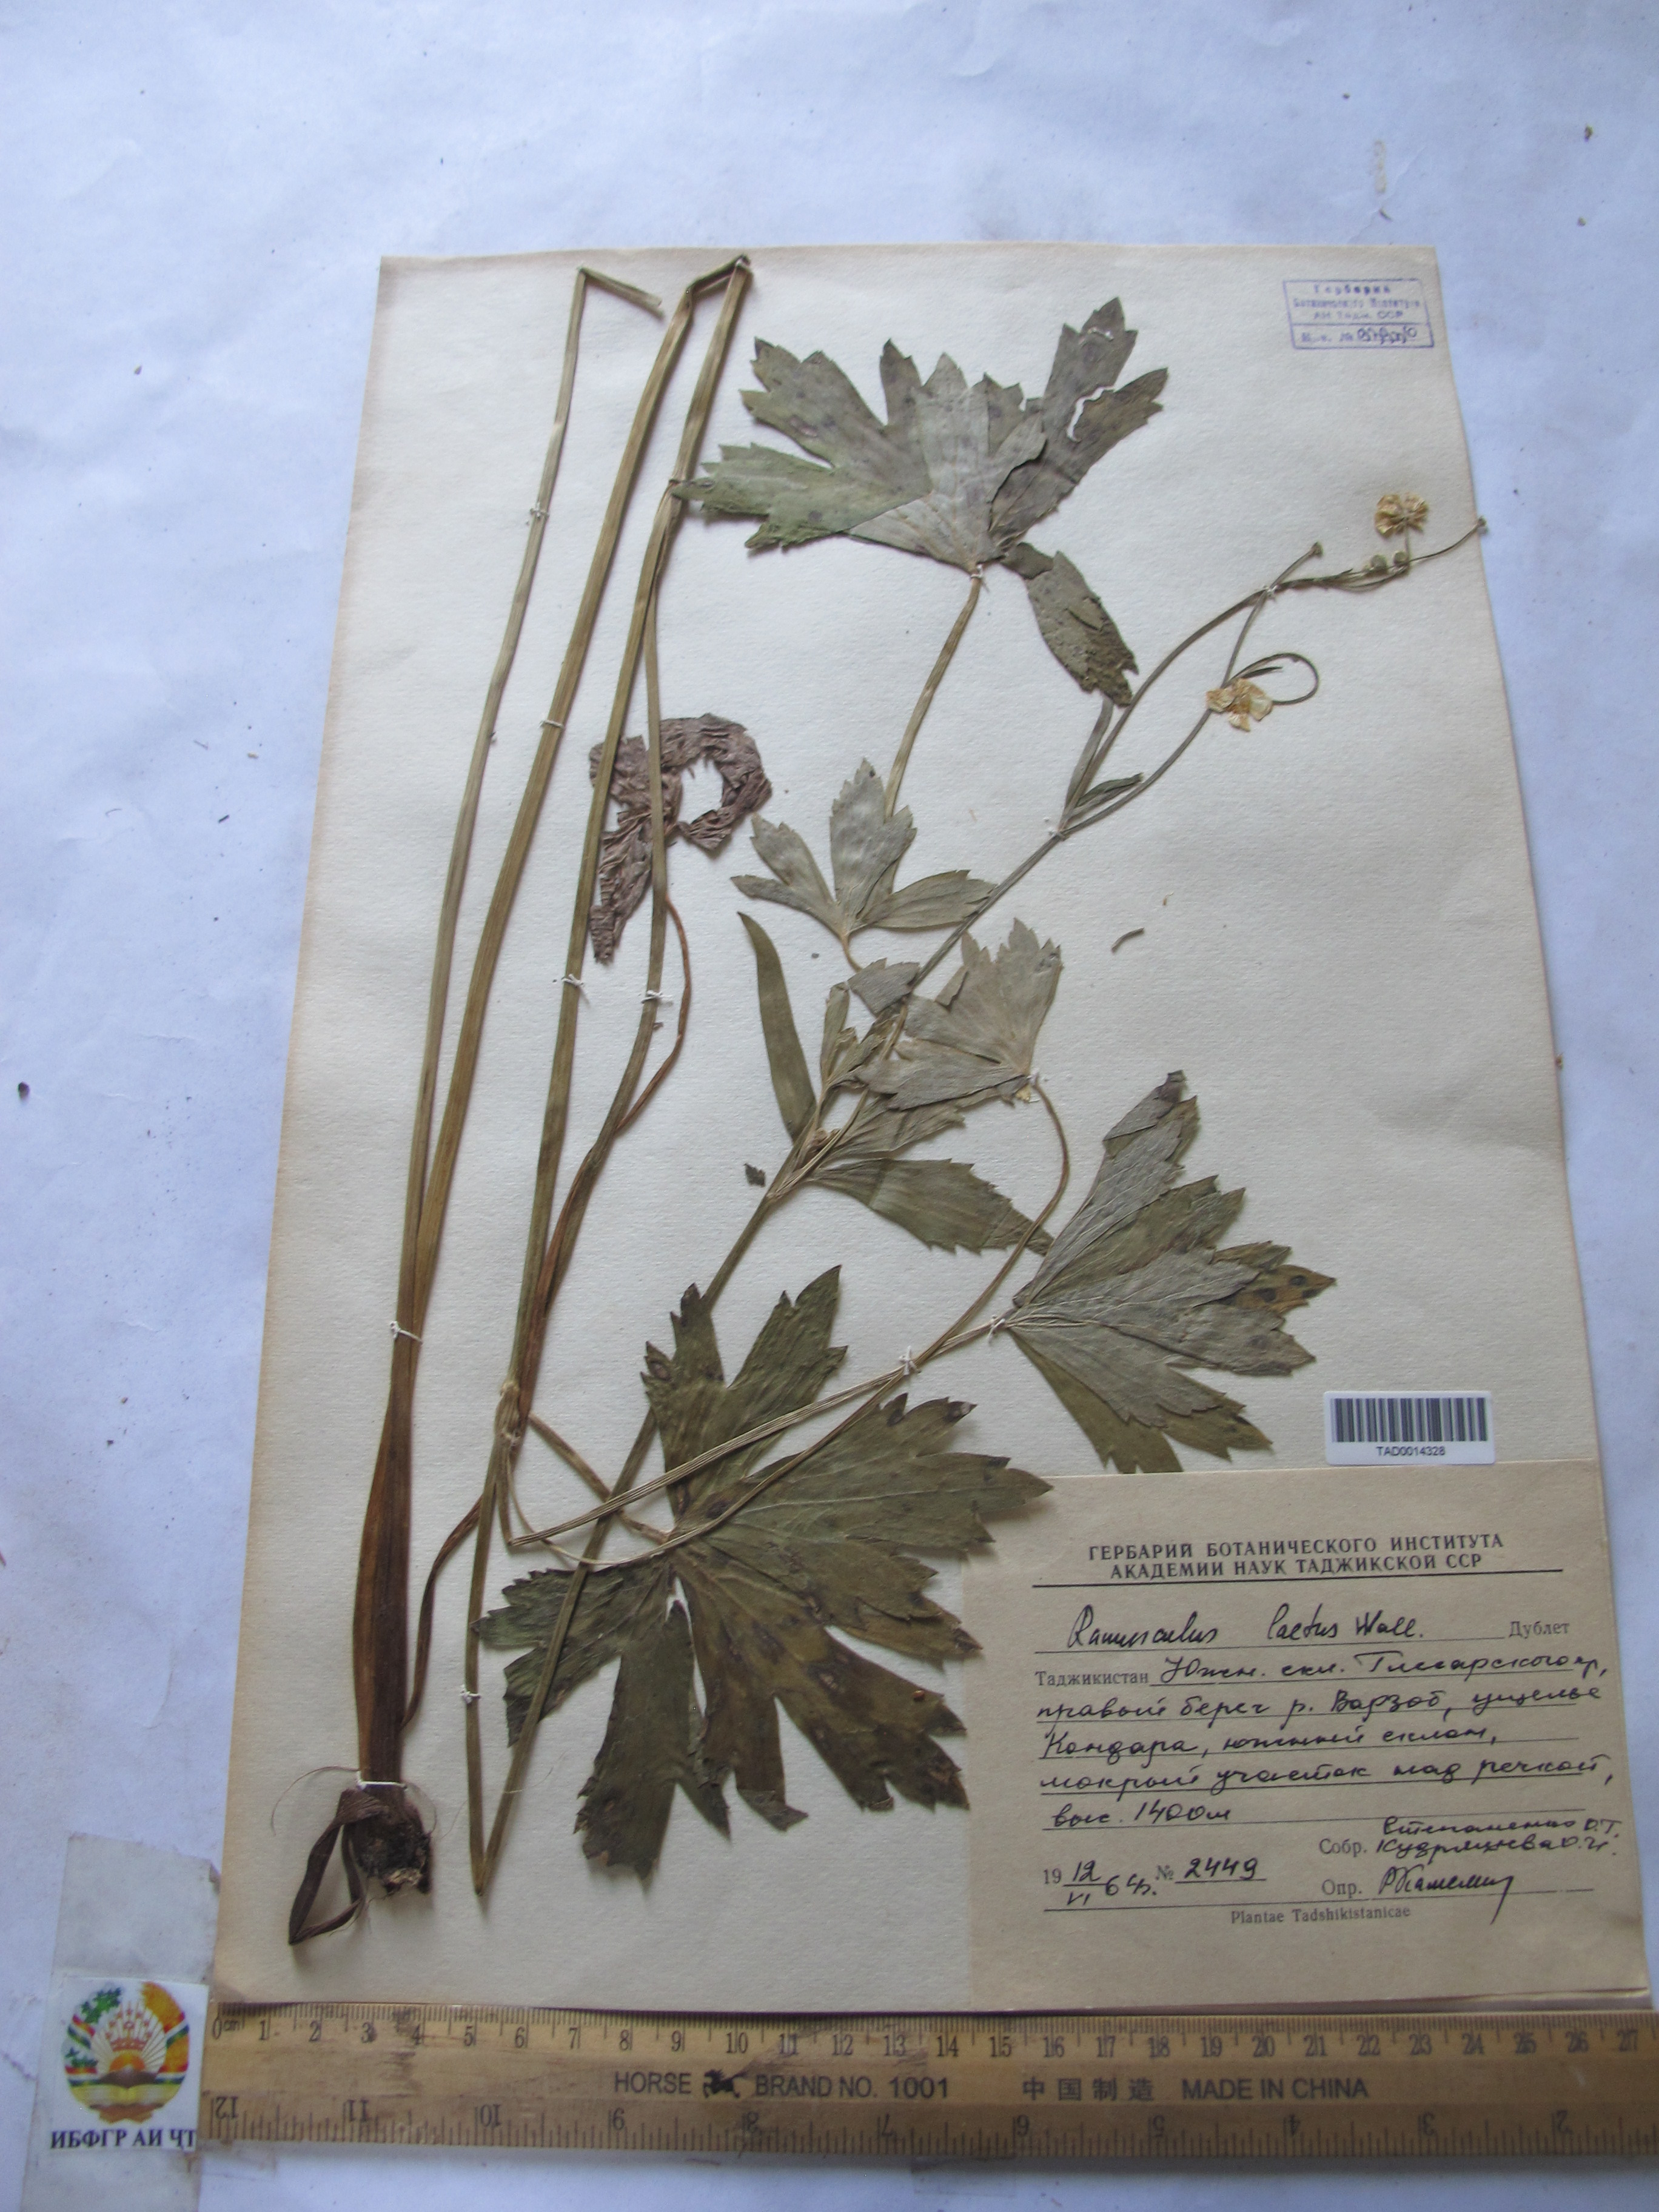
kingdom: Plantae
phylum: Tracheophyta
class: Magnoliopsida
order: Ranunculales
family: Ranunculaceae
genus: Ranunculus
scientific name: Ranunculus distans
